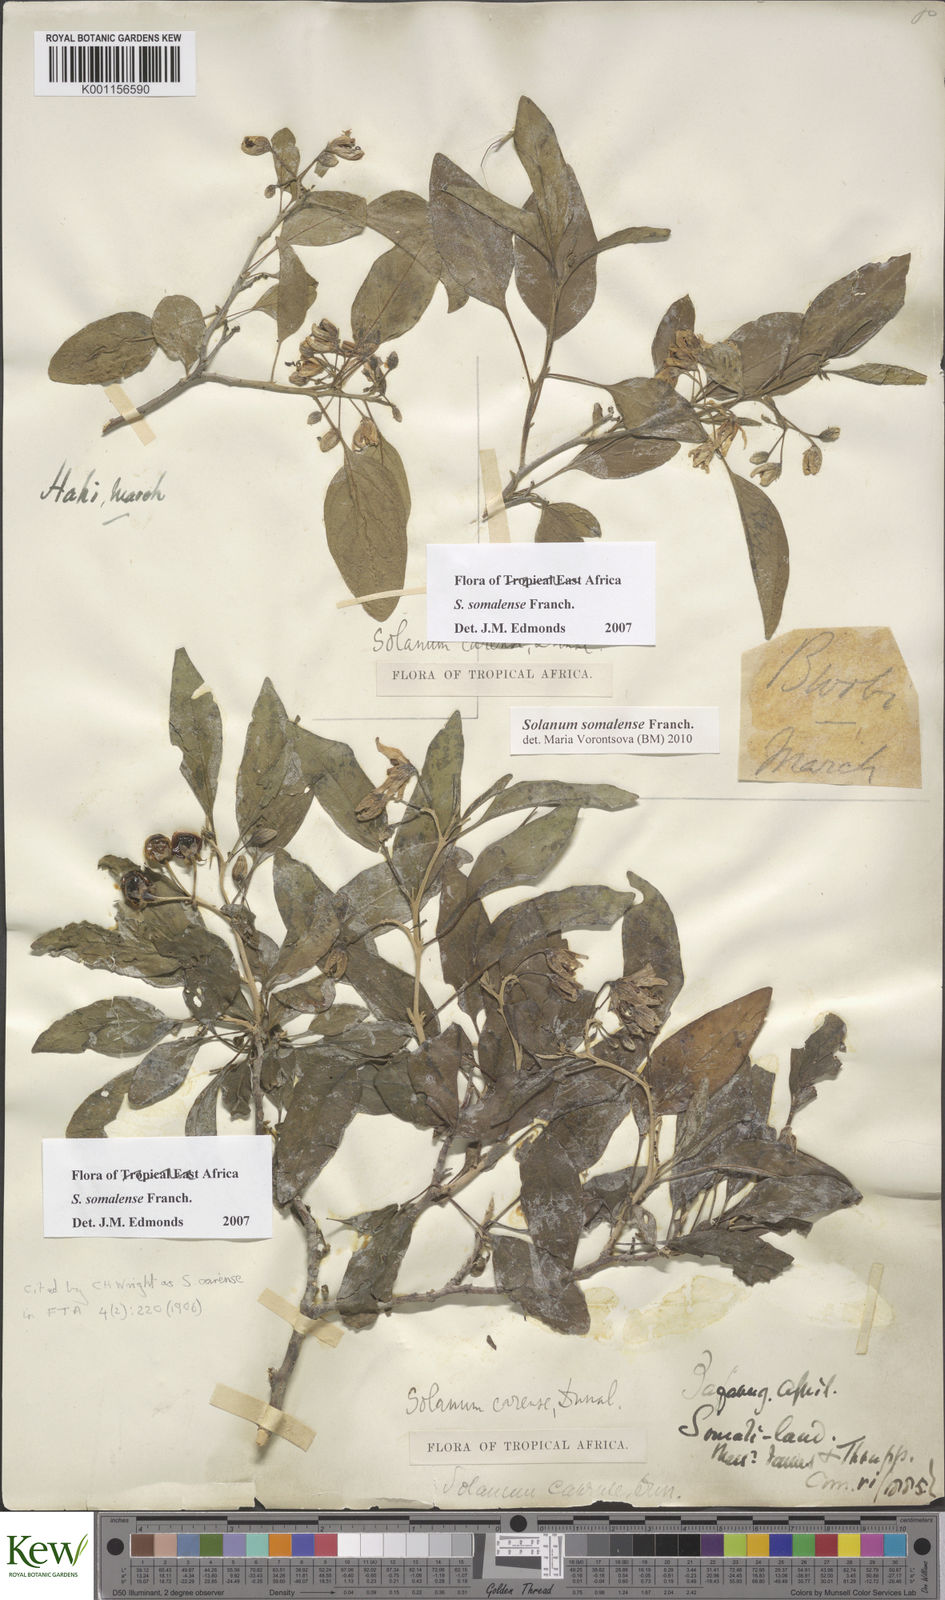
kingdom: Plantae
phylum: Tracheophyta
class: Magnoliopsida
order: Solanales
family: Solanaceae
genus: Solanum
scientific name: Solanum somalense
